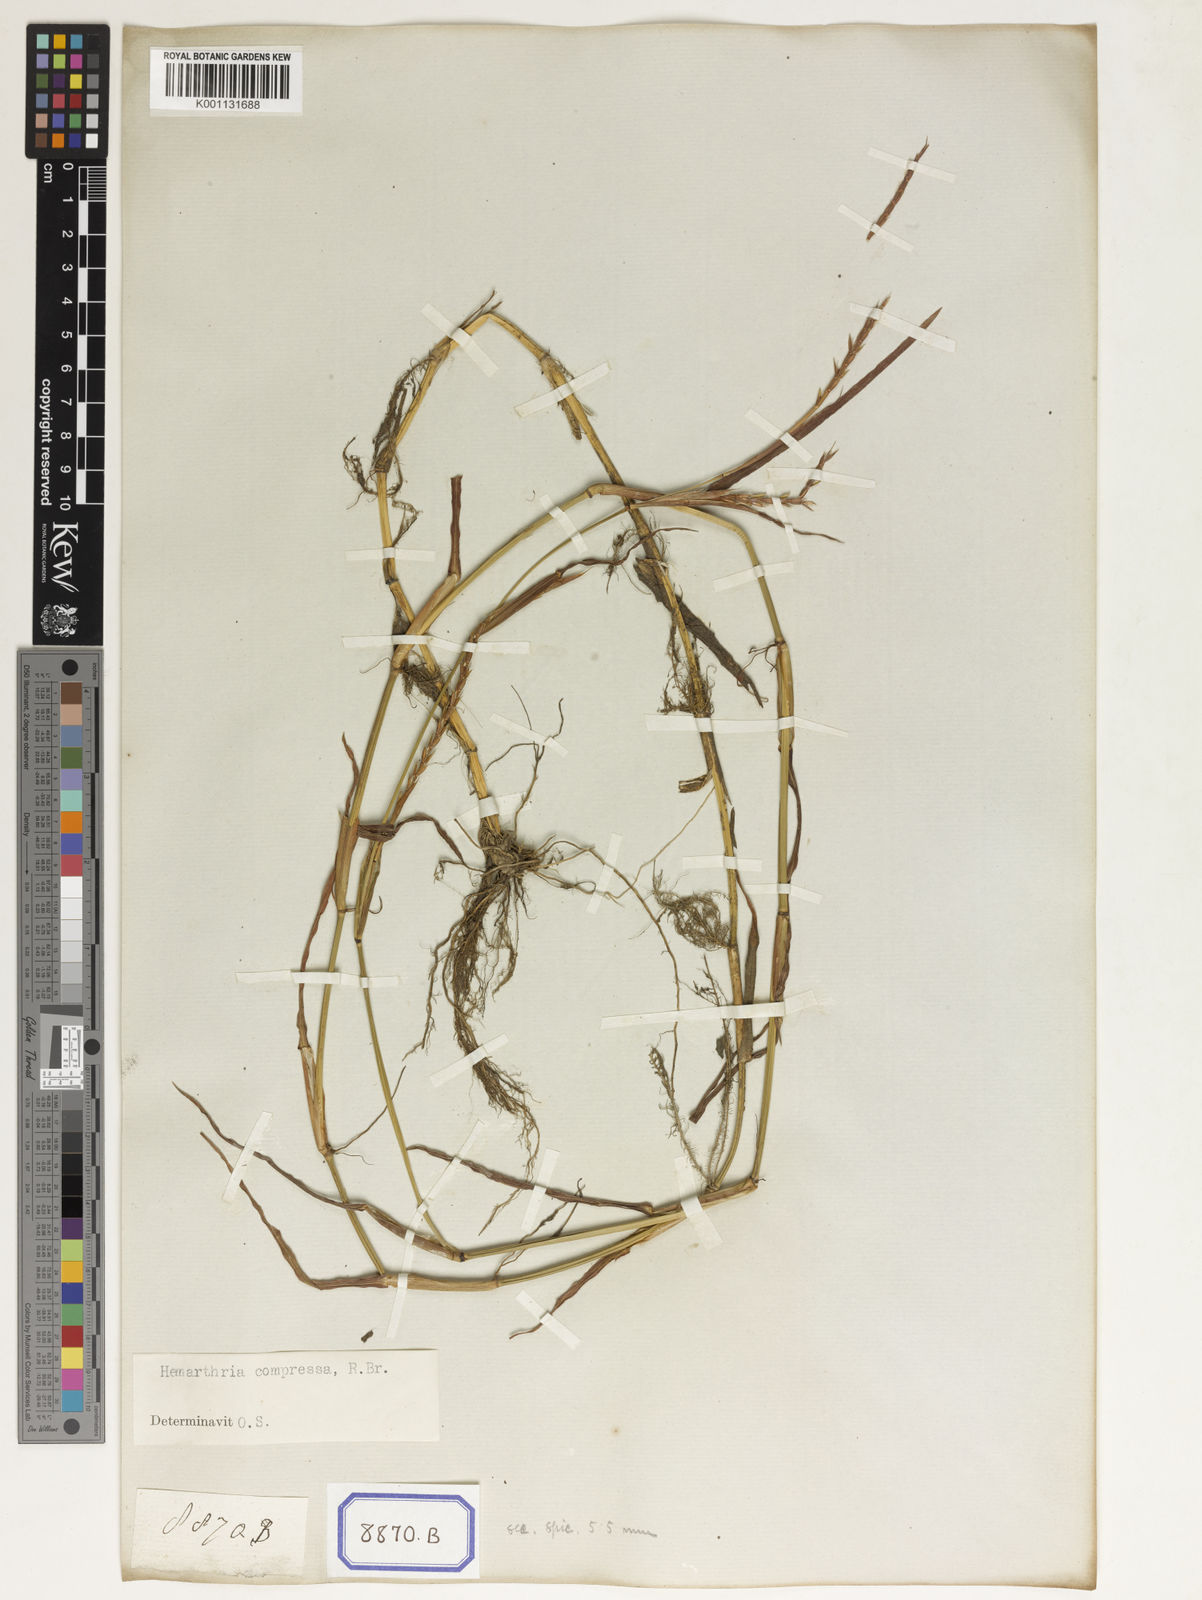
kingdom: Plantae
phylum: Tracheophyta
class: Liliopsida
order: Poales
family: Poaceae
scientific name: Poaceae
